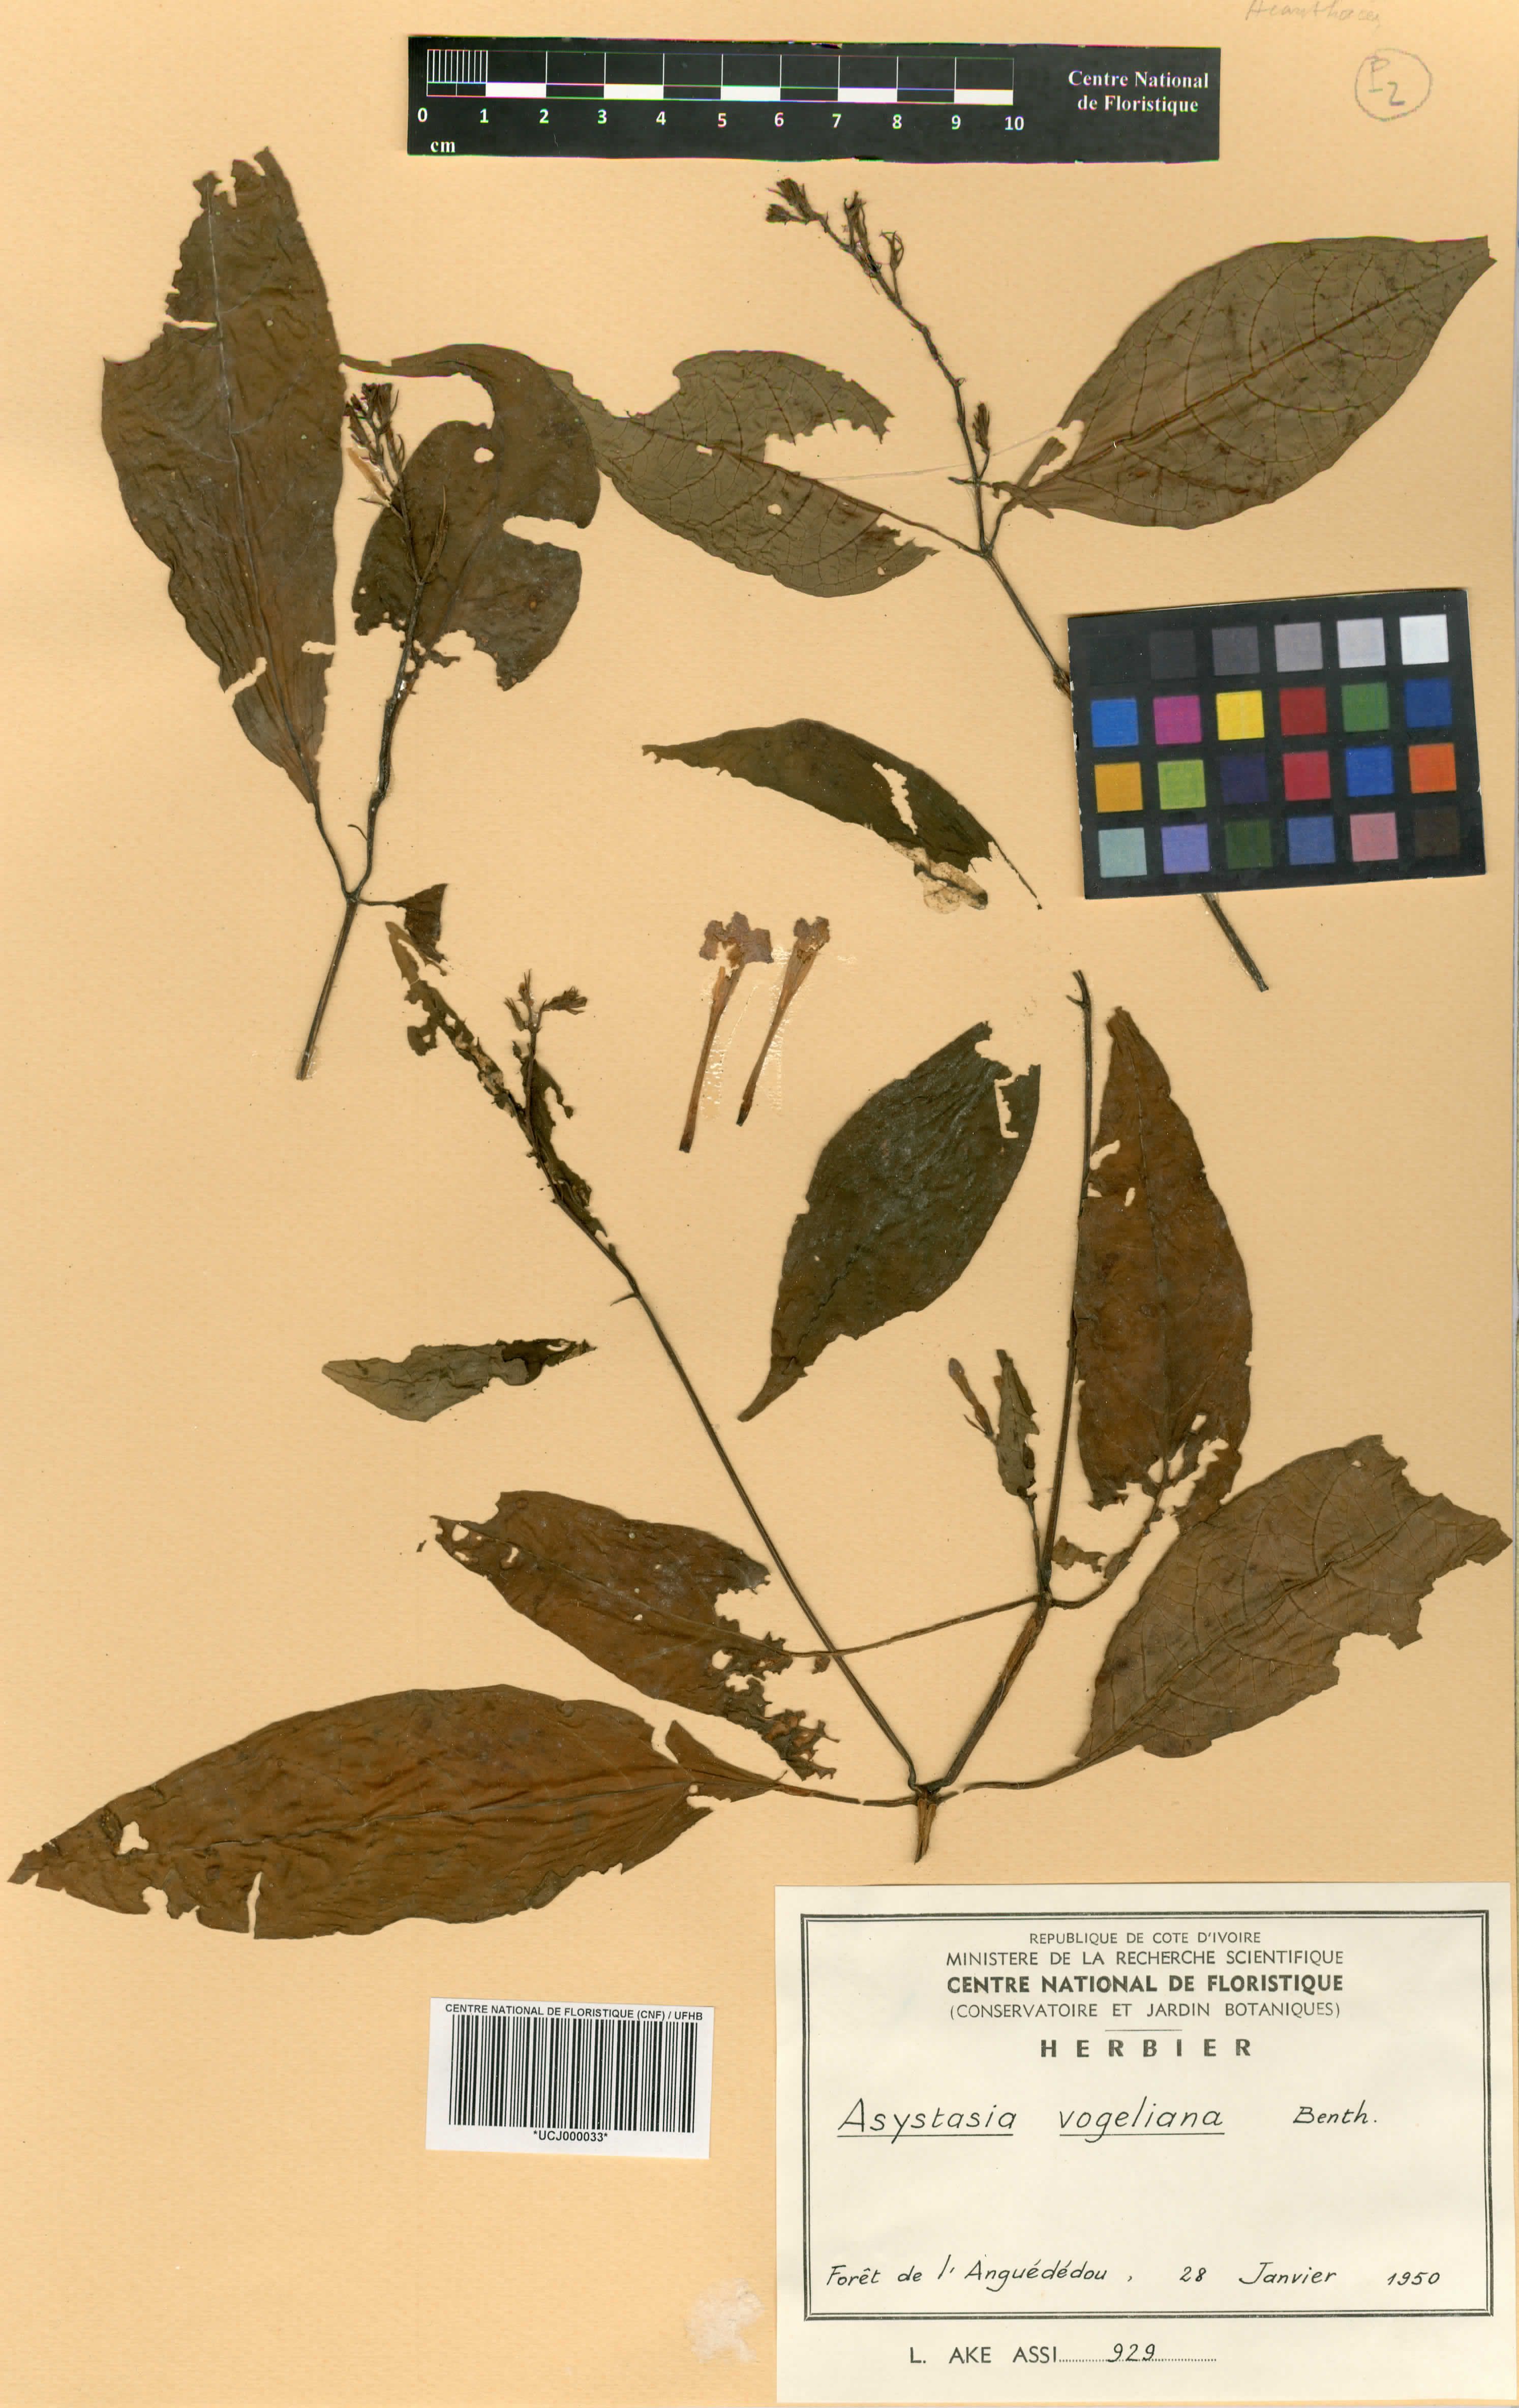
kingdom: Plantae
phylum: Tracheophyta
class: Magnoliopsida
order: Lamiales
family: Acanthaceae
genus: Asystasia
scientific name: Asystasia vogeliana
